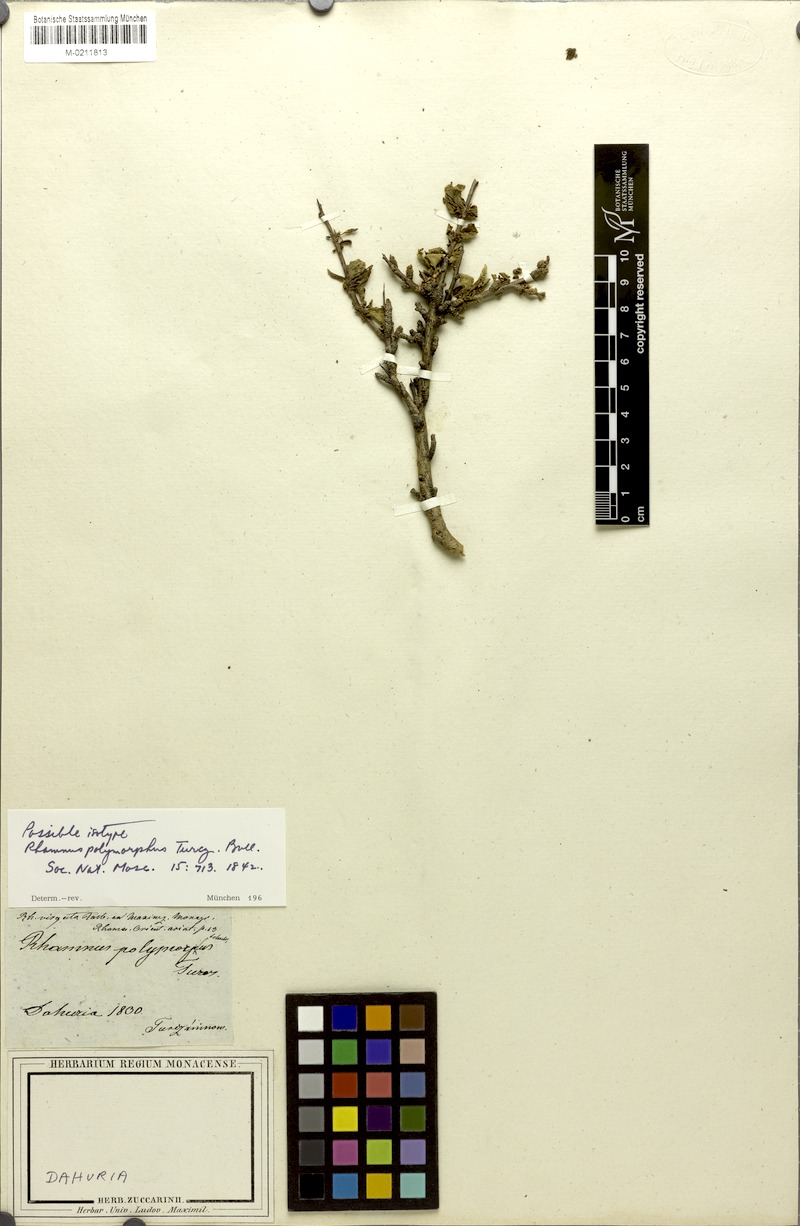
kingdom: Plantae
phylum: Tracheophyta
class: Magnoliopsida
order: Rosales
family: Rhamnaceae
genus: Rhamnus
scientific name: Rhamnus parvifolia
